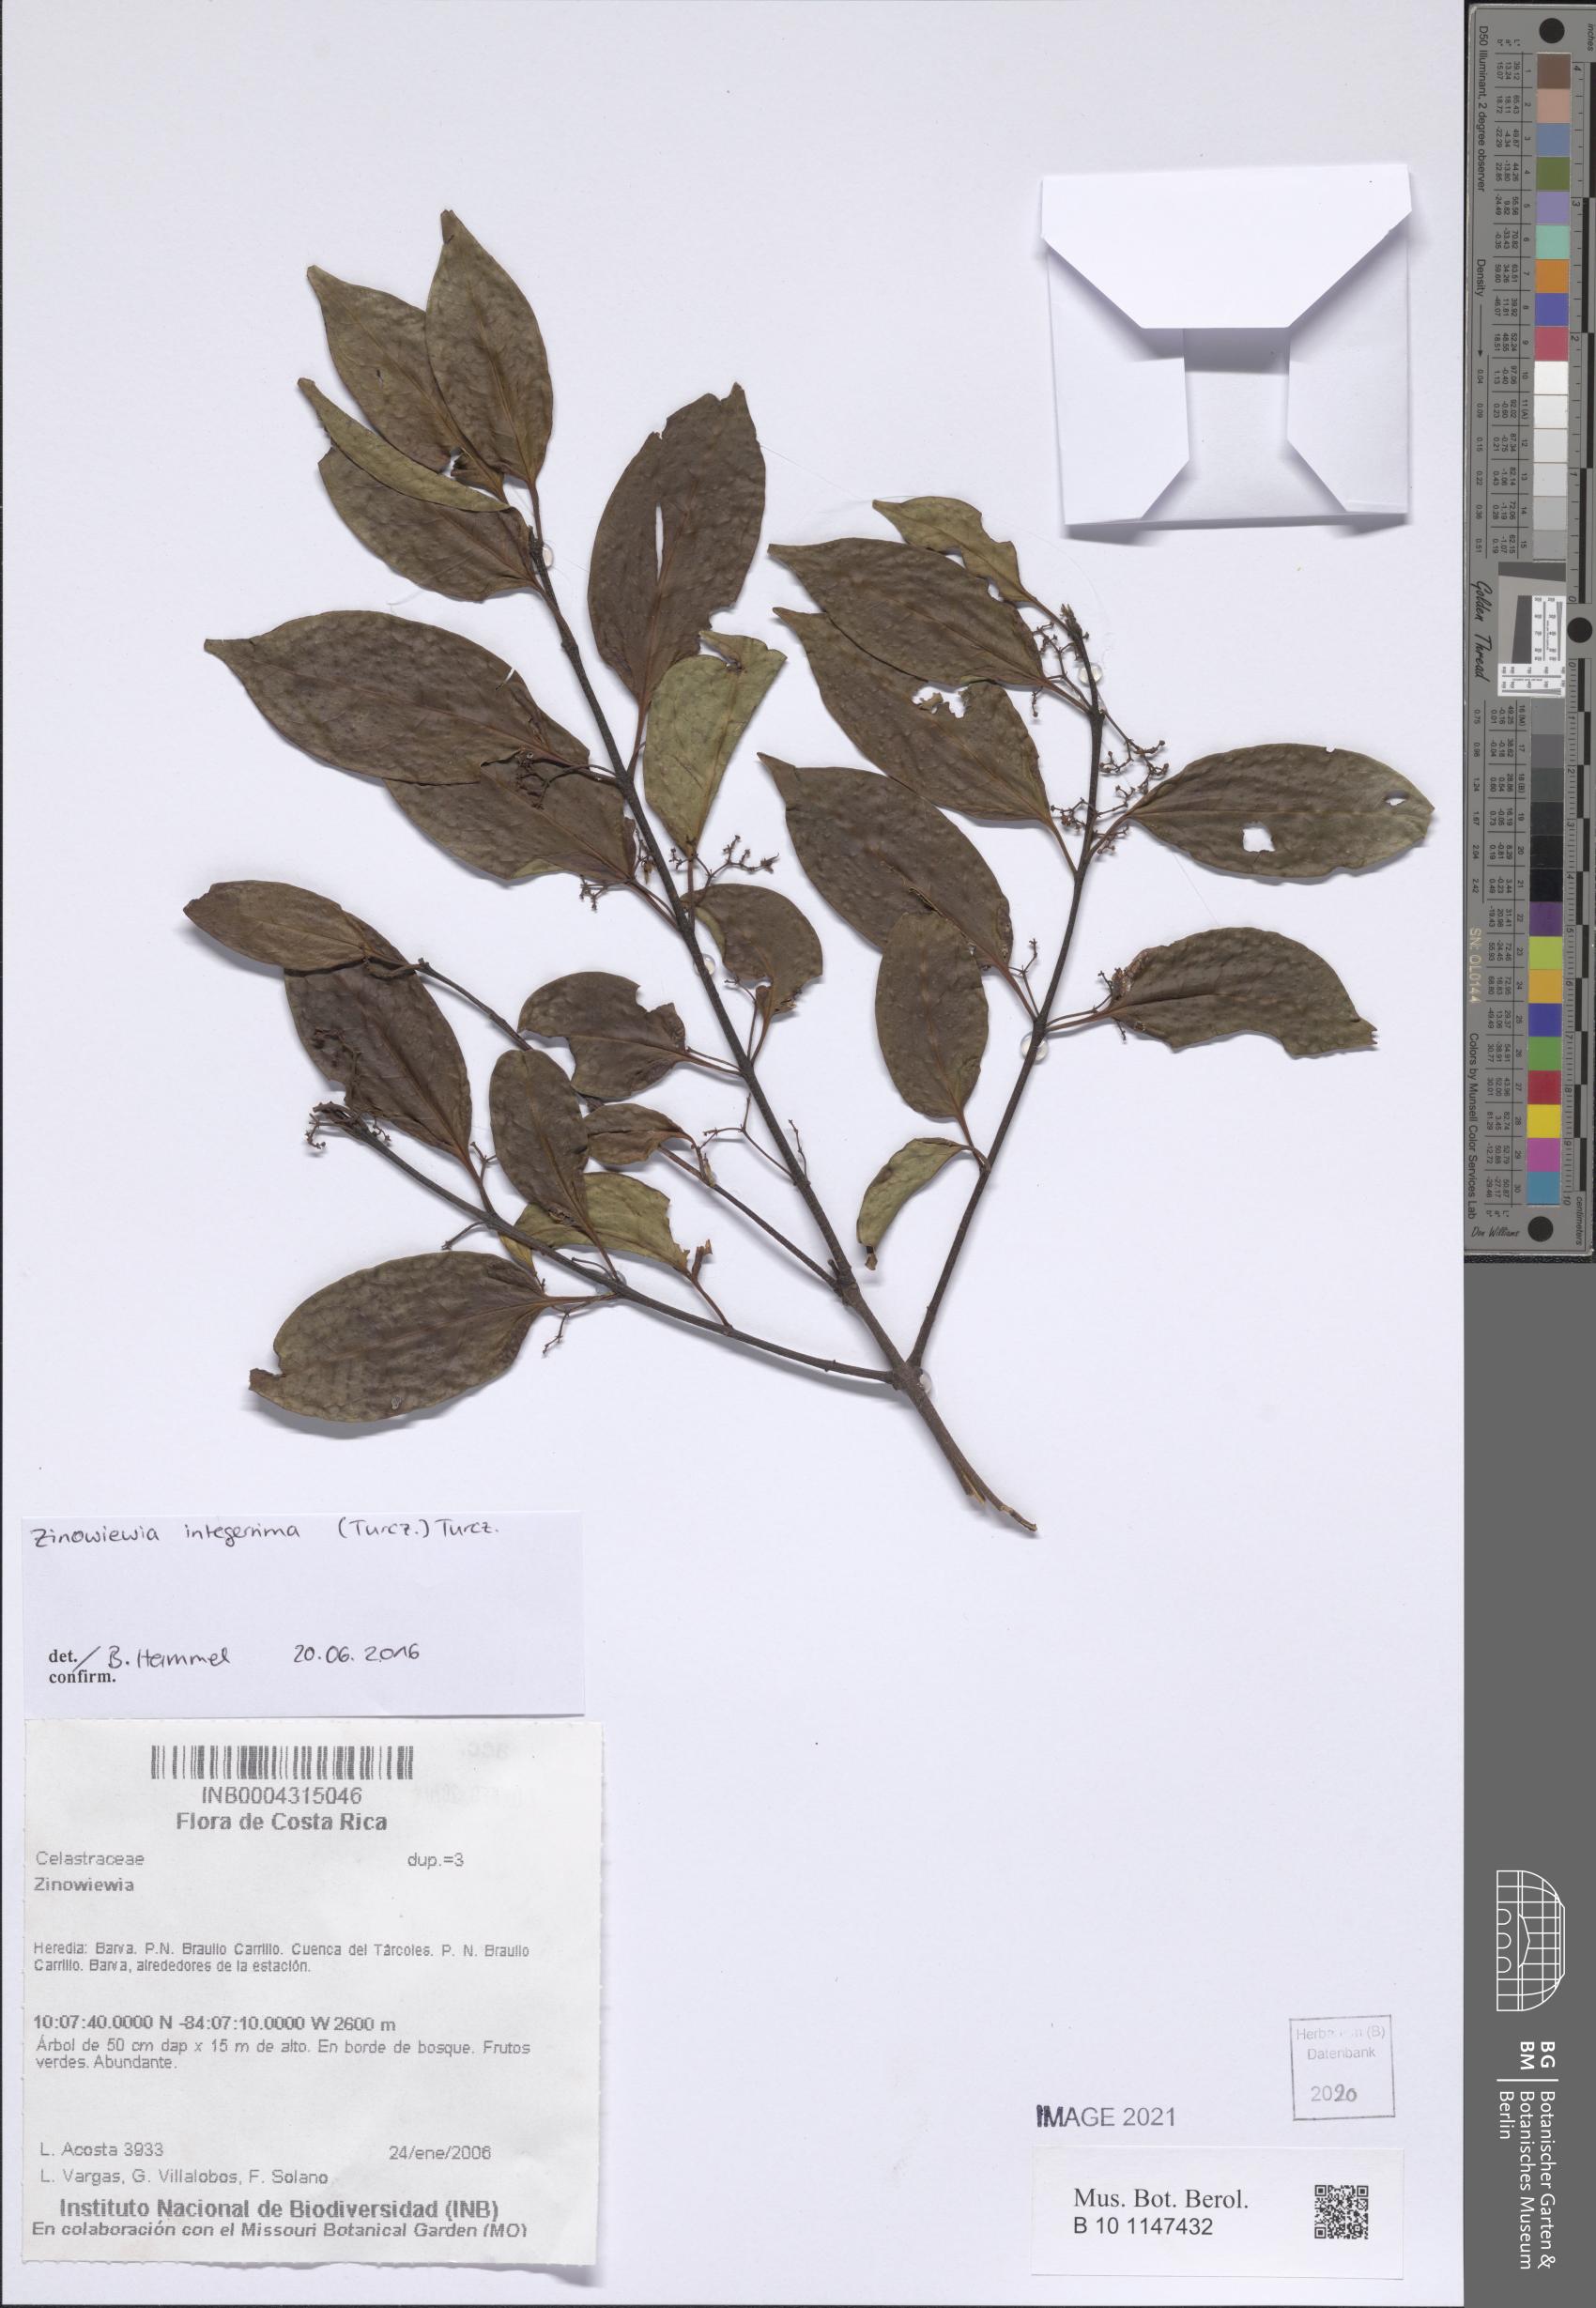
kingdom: Plantae
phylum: Tracheophyta
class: Magnoliopsida
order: Celastrales
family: Celastraceae
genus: Zinowiewia
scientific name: Zinowiewia
